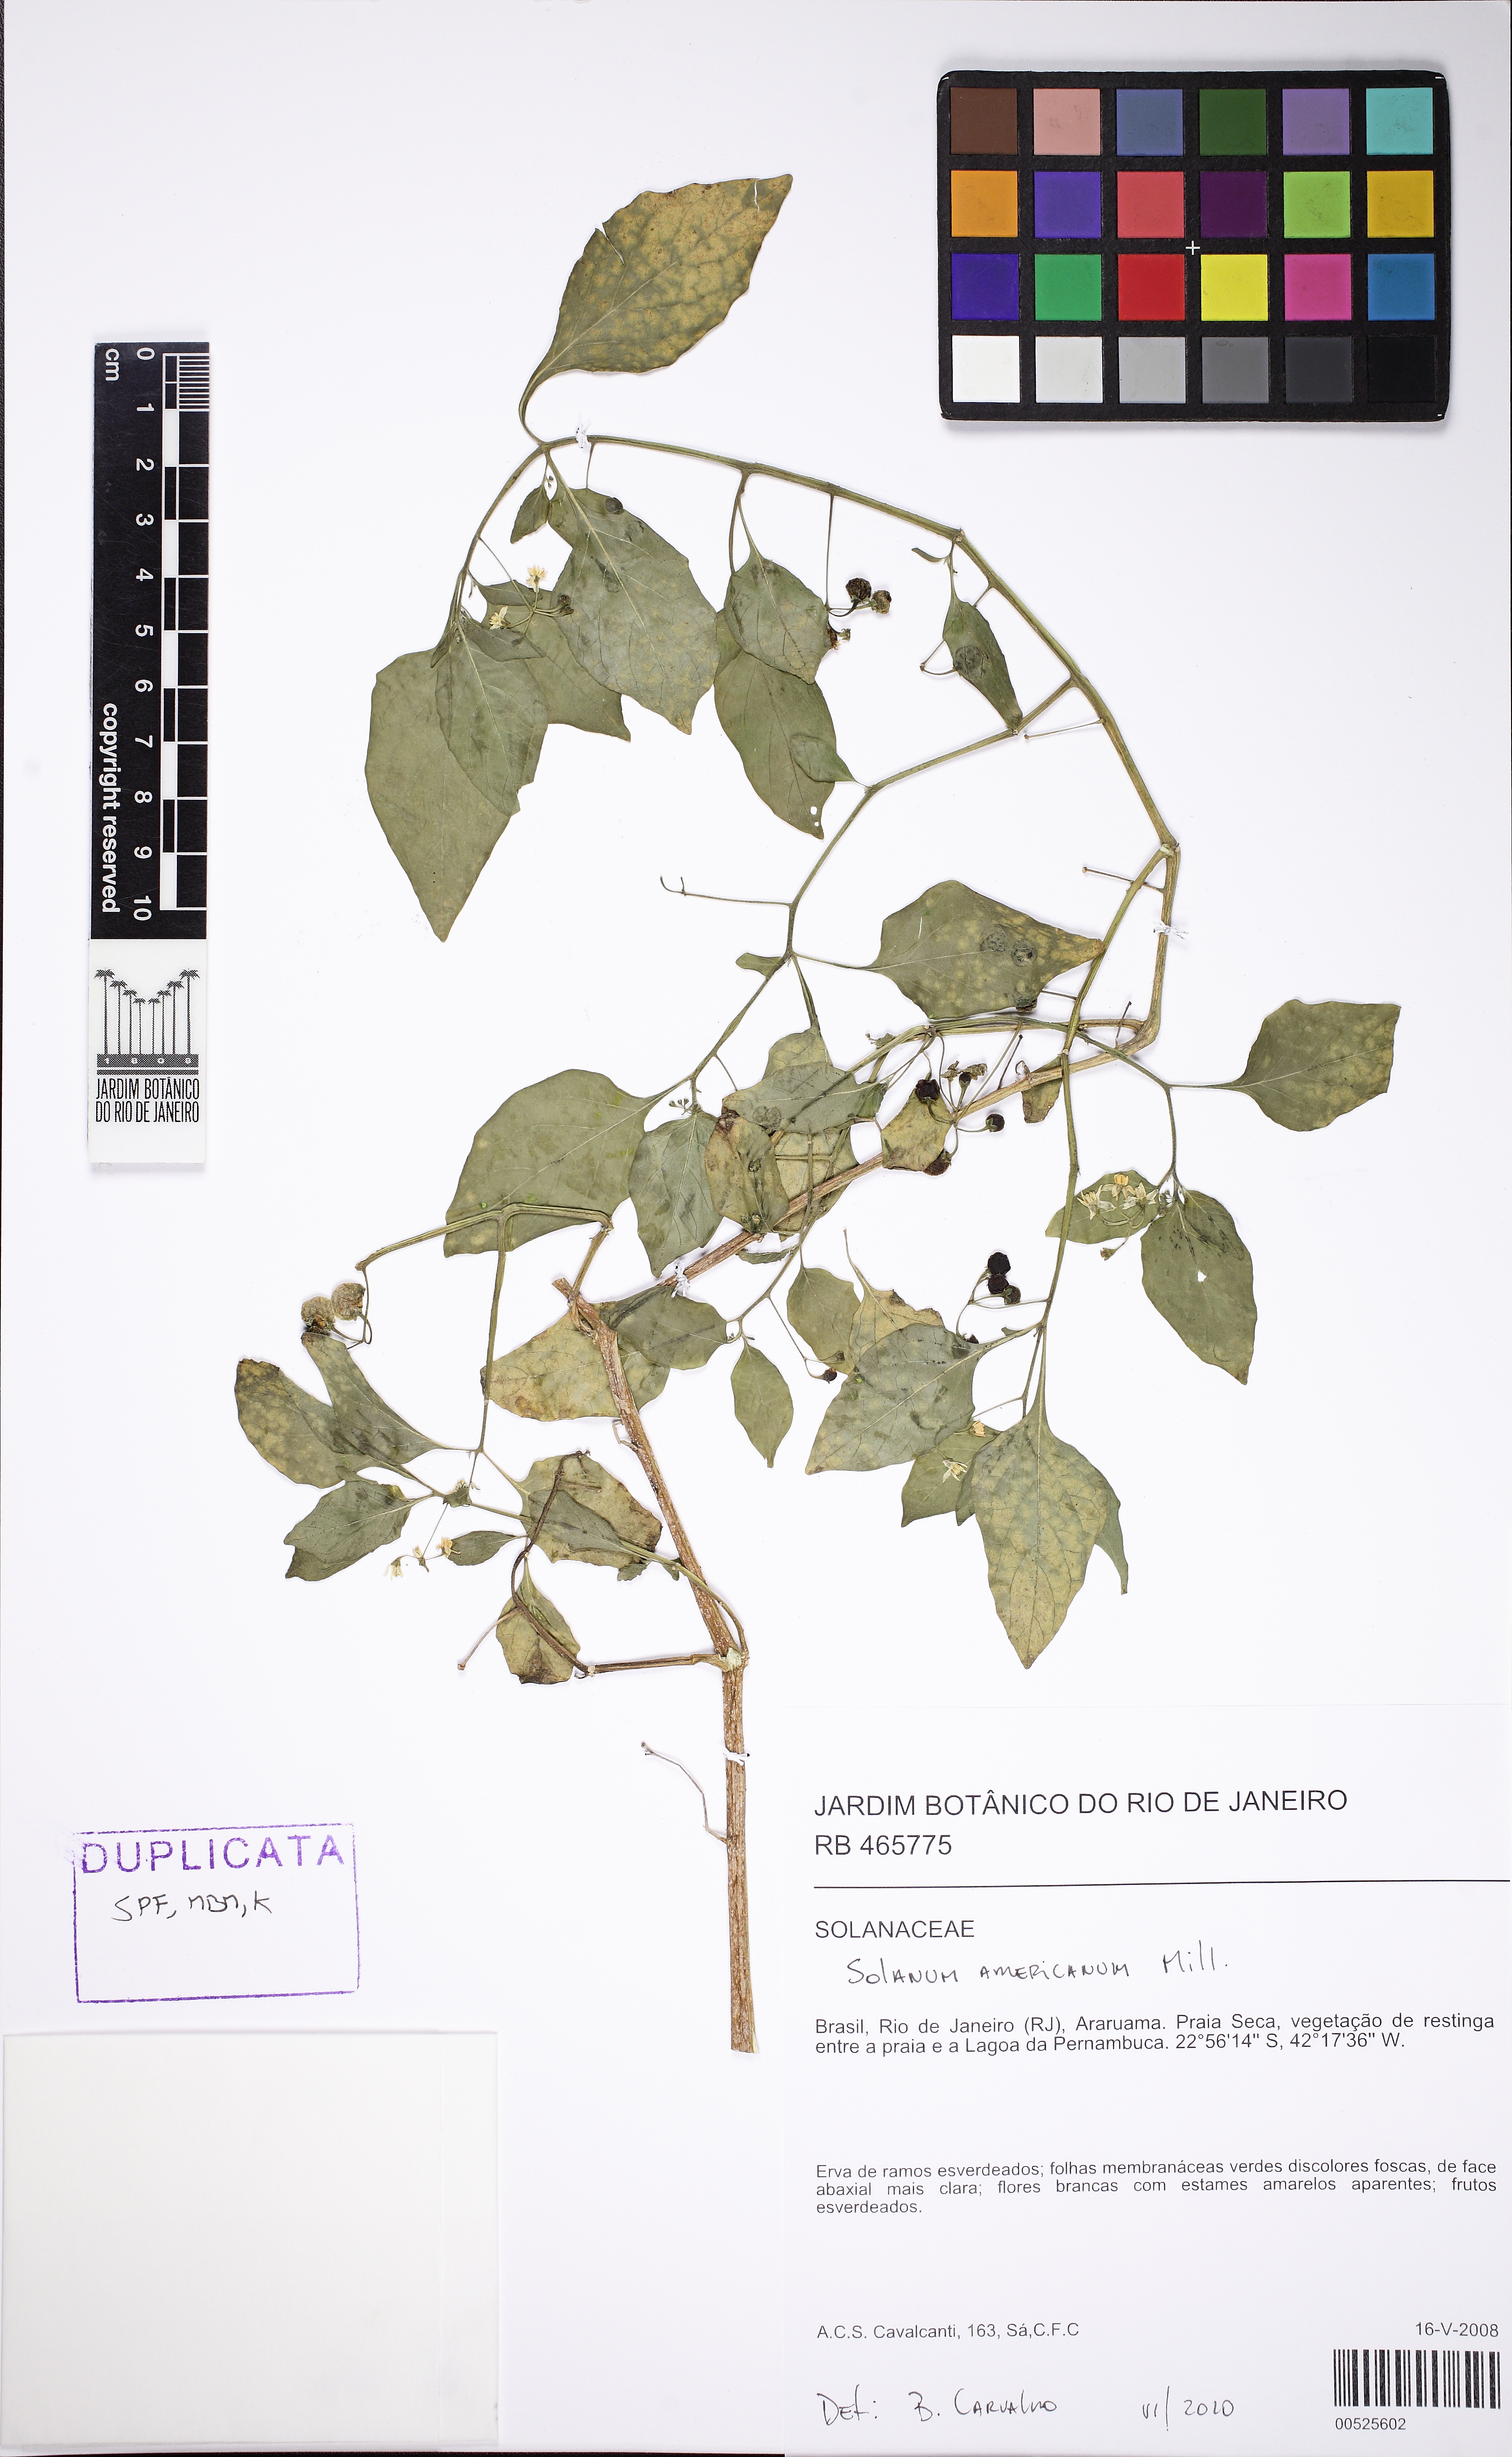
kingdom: Plantae
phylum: Tracheophyta
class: Magnoliopsida
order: Solanales
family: Solanaceae
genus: Solanum
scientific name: Solanum americanum
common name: American black nightshade
